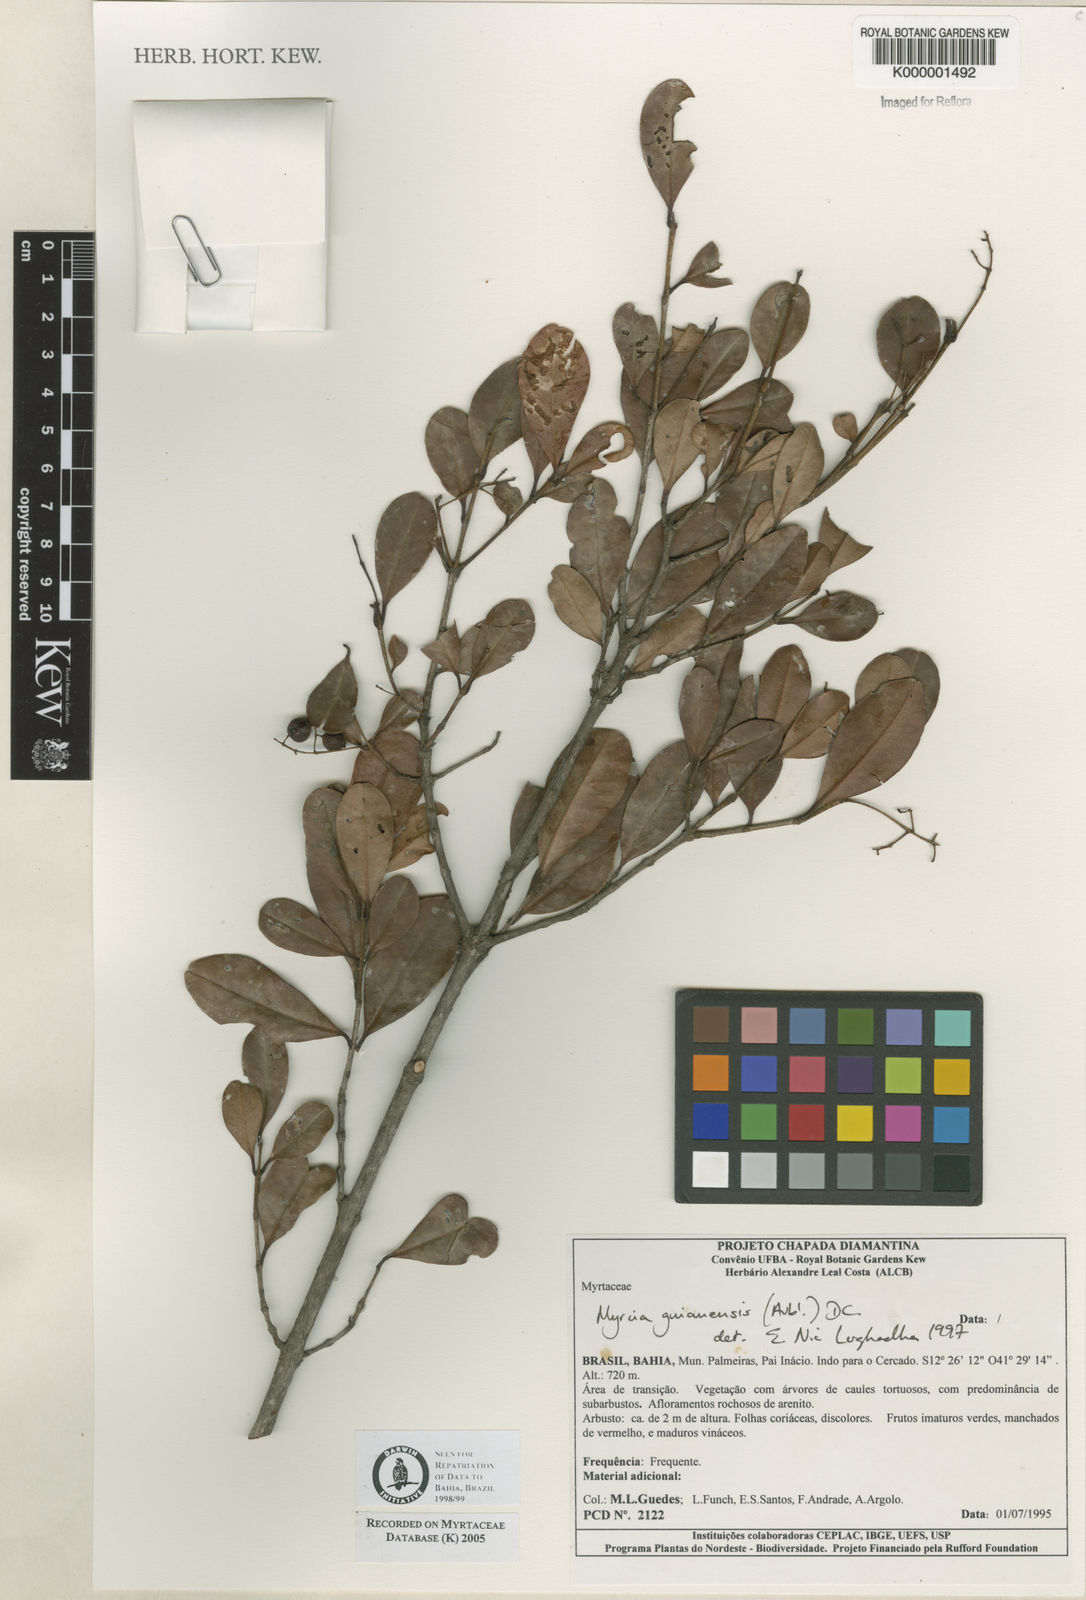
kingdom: Plantae
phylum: Tracheophyta
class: Magnoliopsida
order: Myrtales
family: Myrtaceae
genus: Myrcia
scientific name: Myrcia guianensis
